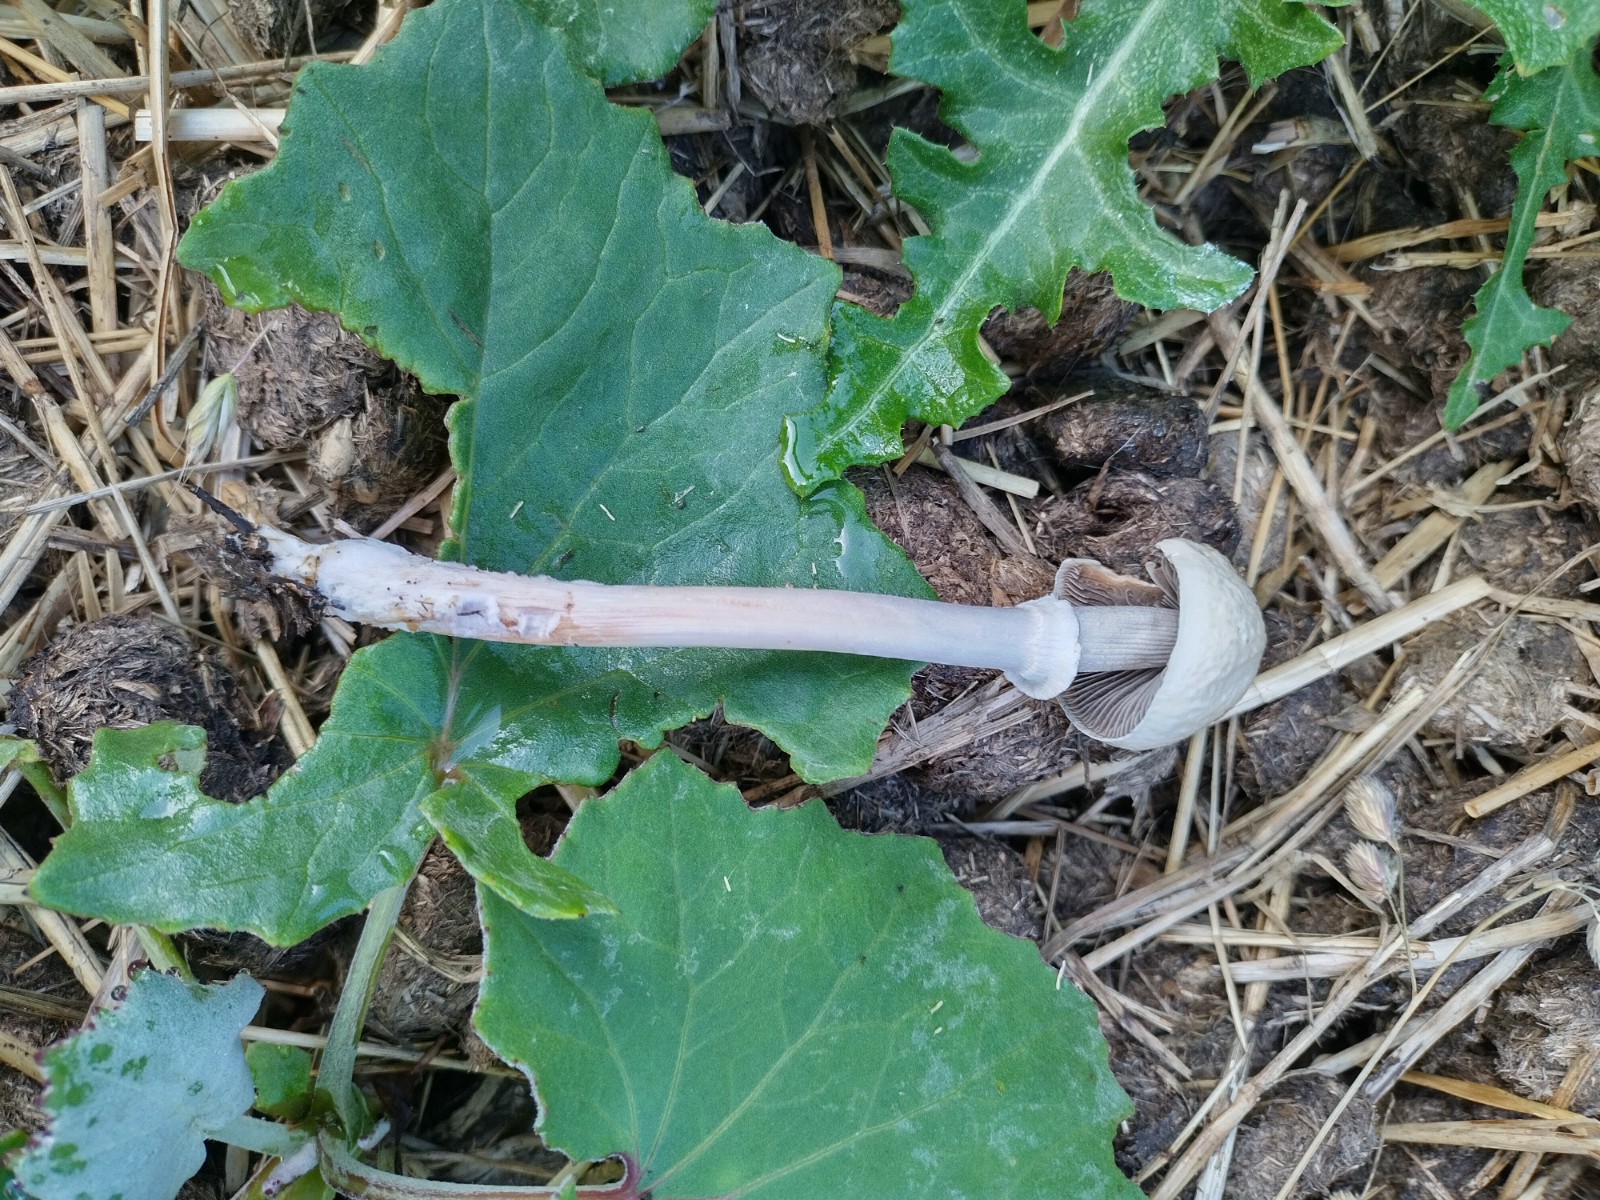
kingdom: Fungi
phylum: Basidiomycota
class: Agaricomycetes
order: Agaricales
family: Bolbitiaceae
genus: Panaeolus
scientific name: Panaeolus semiovatus
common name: ring-glanshat
